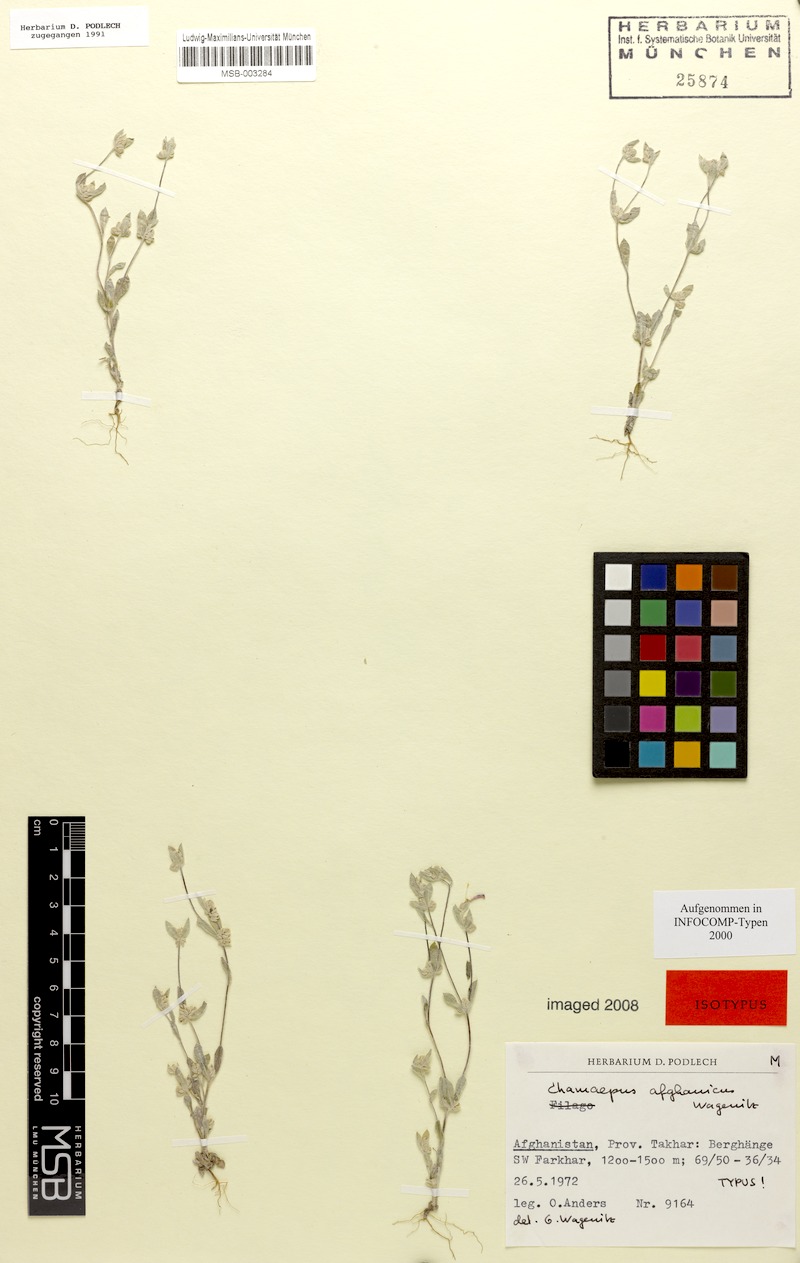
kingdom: Plantae
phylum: Tracheophyta
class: Magnoliopsida
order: Asterales
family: Asteraceae
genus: Chamaepus
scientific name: Chamaepus afghanicus
